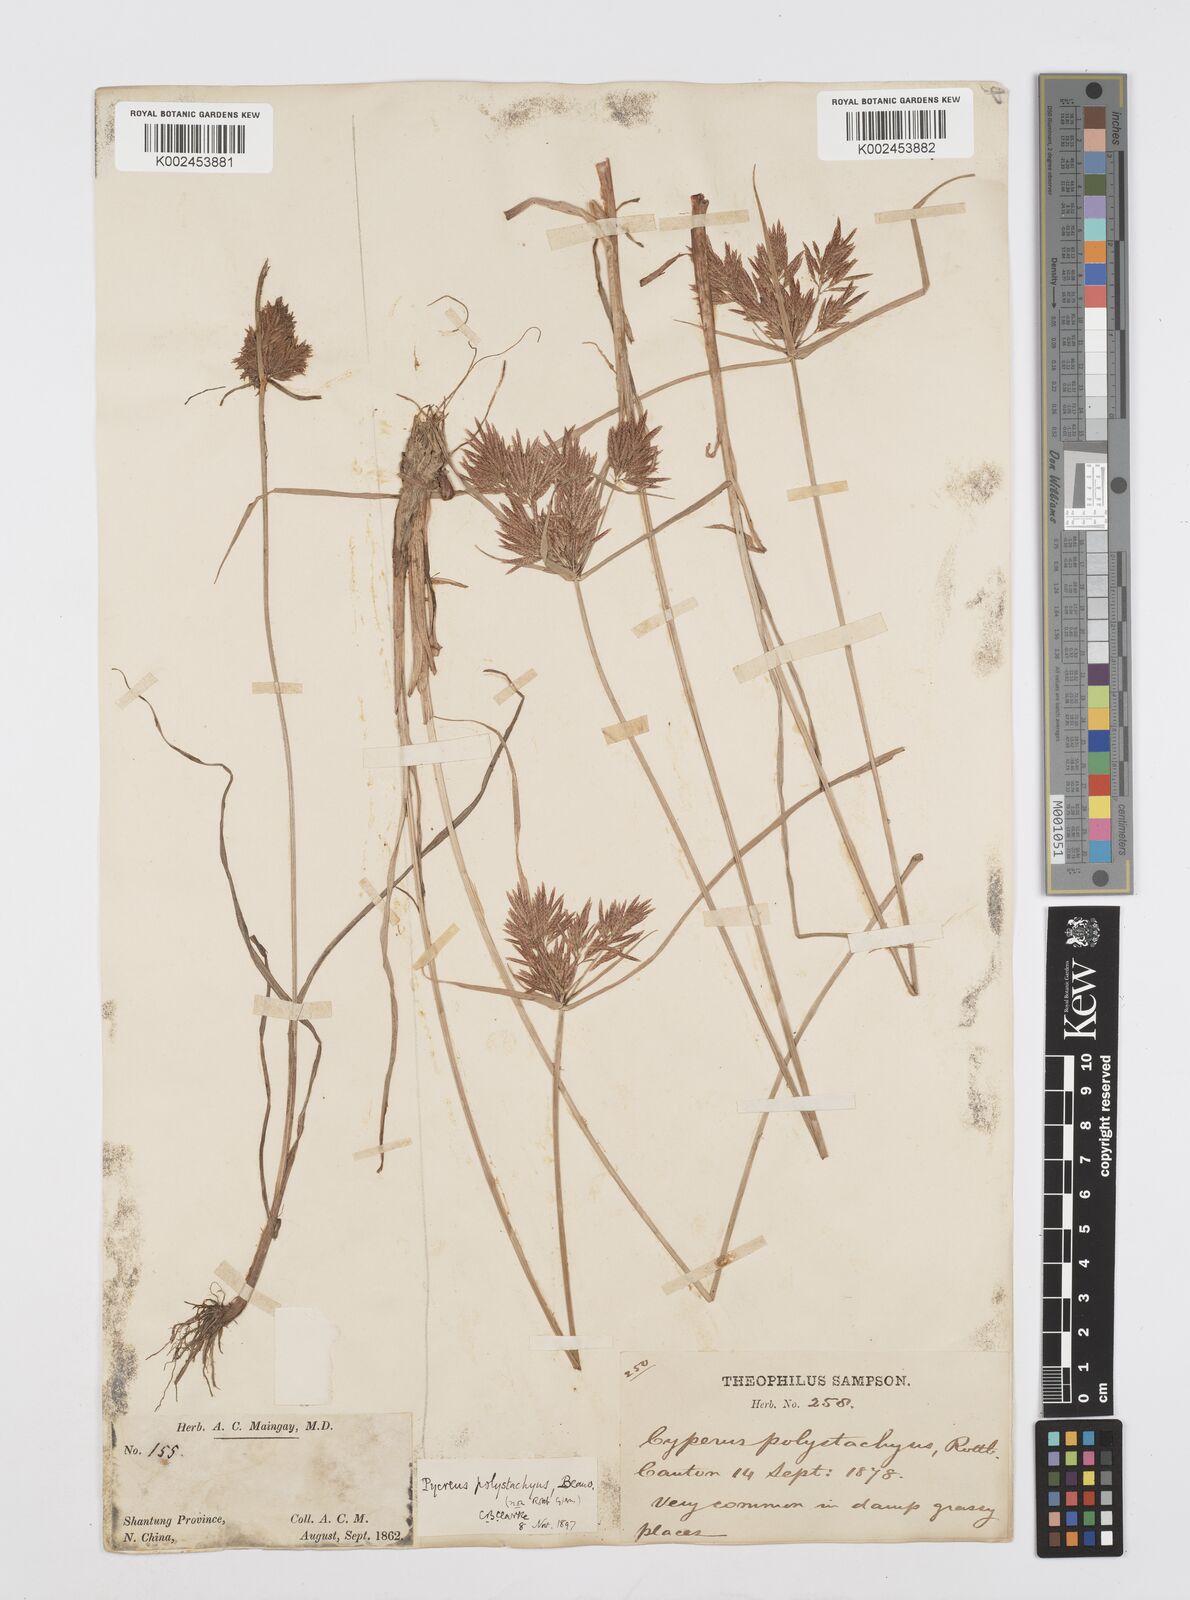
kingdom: Plantae
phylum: Tracheophyta
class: Liliopsida
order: Poales
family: Cyperaceae
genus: Cyperus
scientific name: Cyperus polystachyos
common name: Bunchy flat sedge
